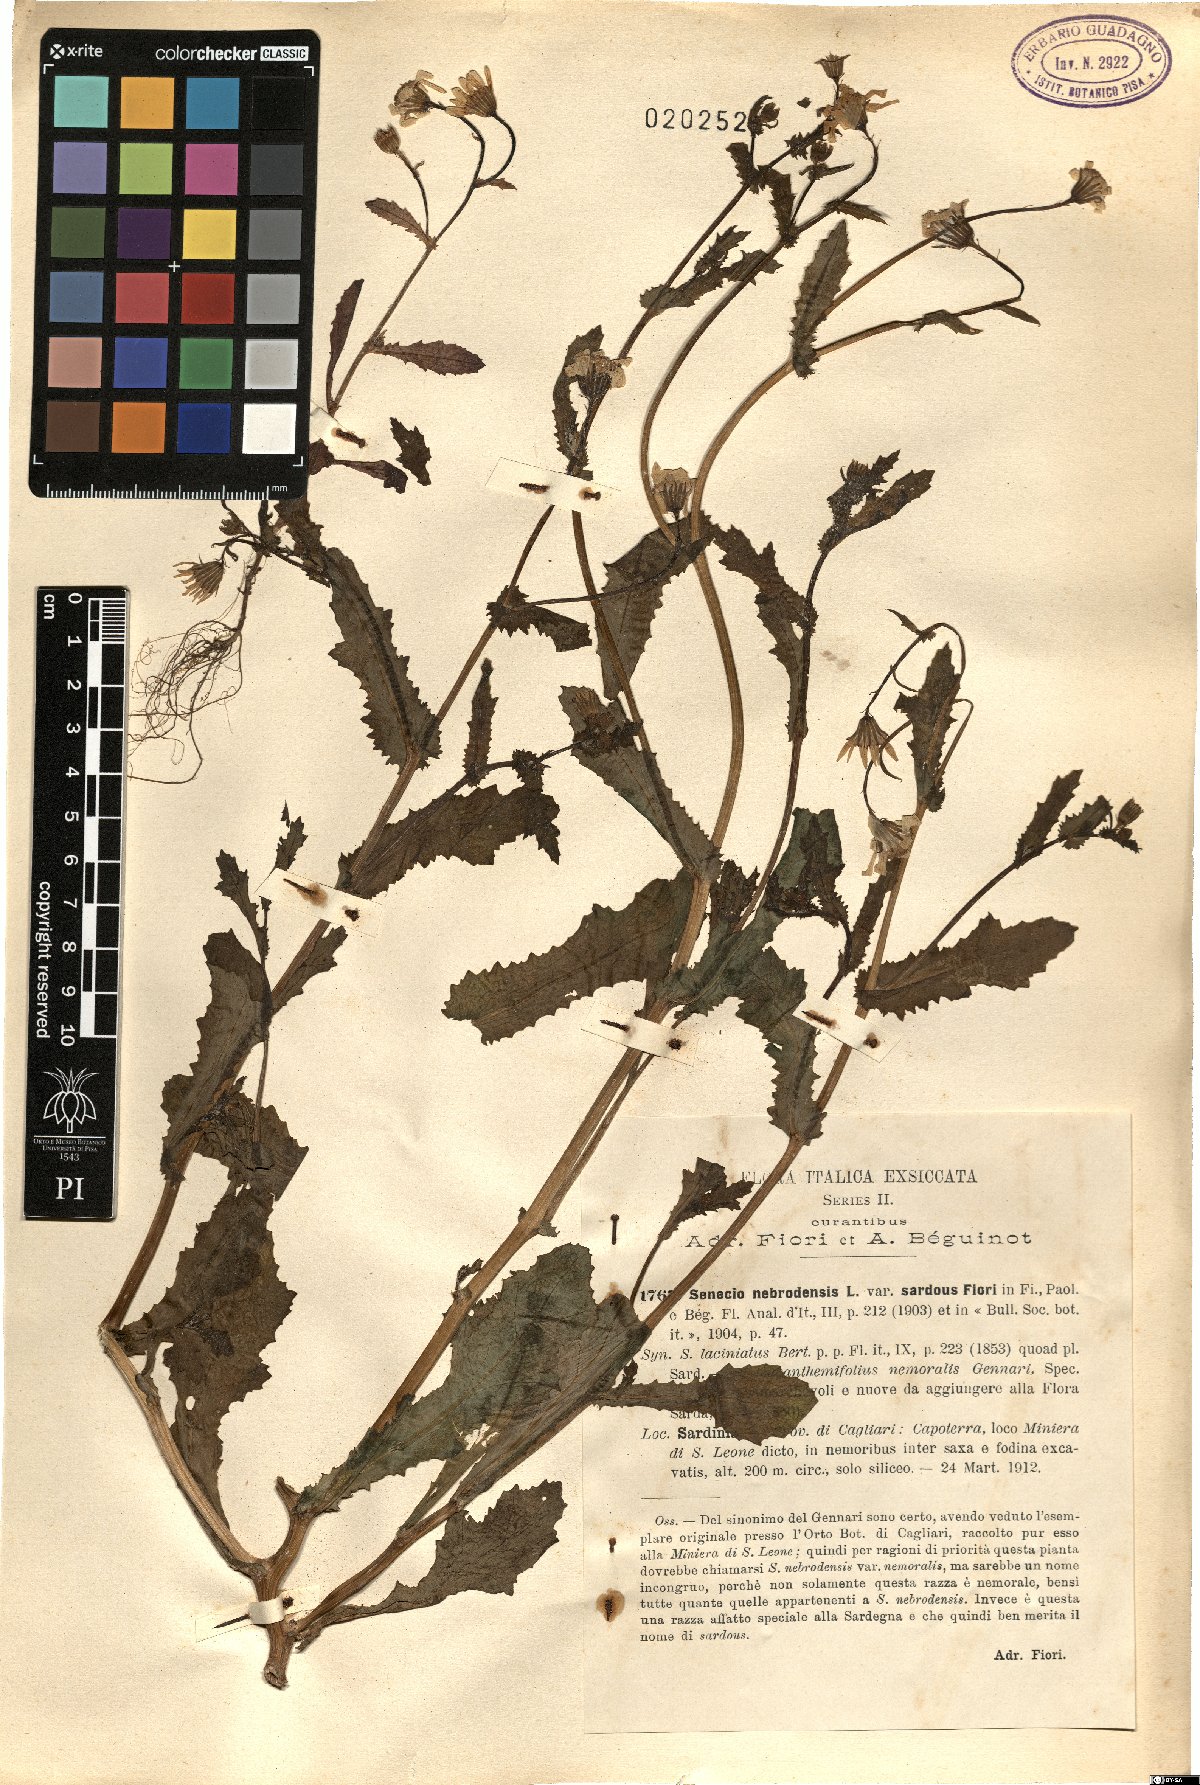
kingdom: Plantae
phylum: Tracheophyta
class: Magnoliopsida
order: Asterales
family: Asteraceae
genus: Senecio
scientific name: Senecio squalidus
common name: Oxford ragwort
